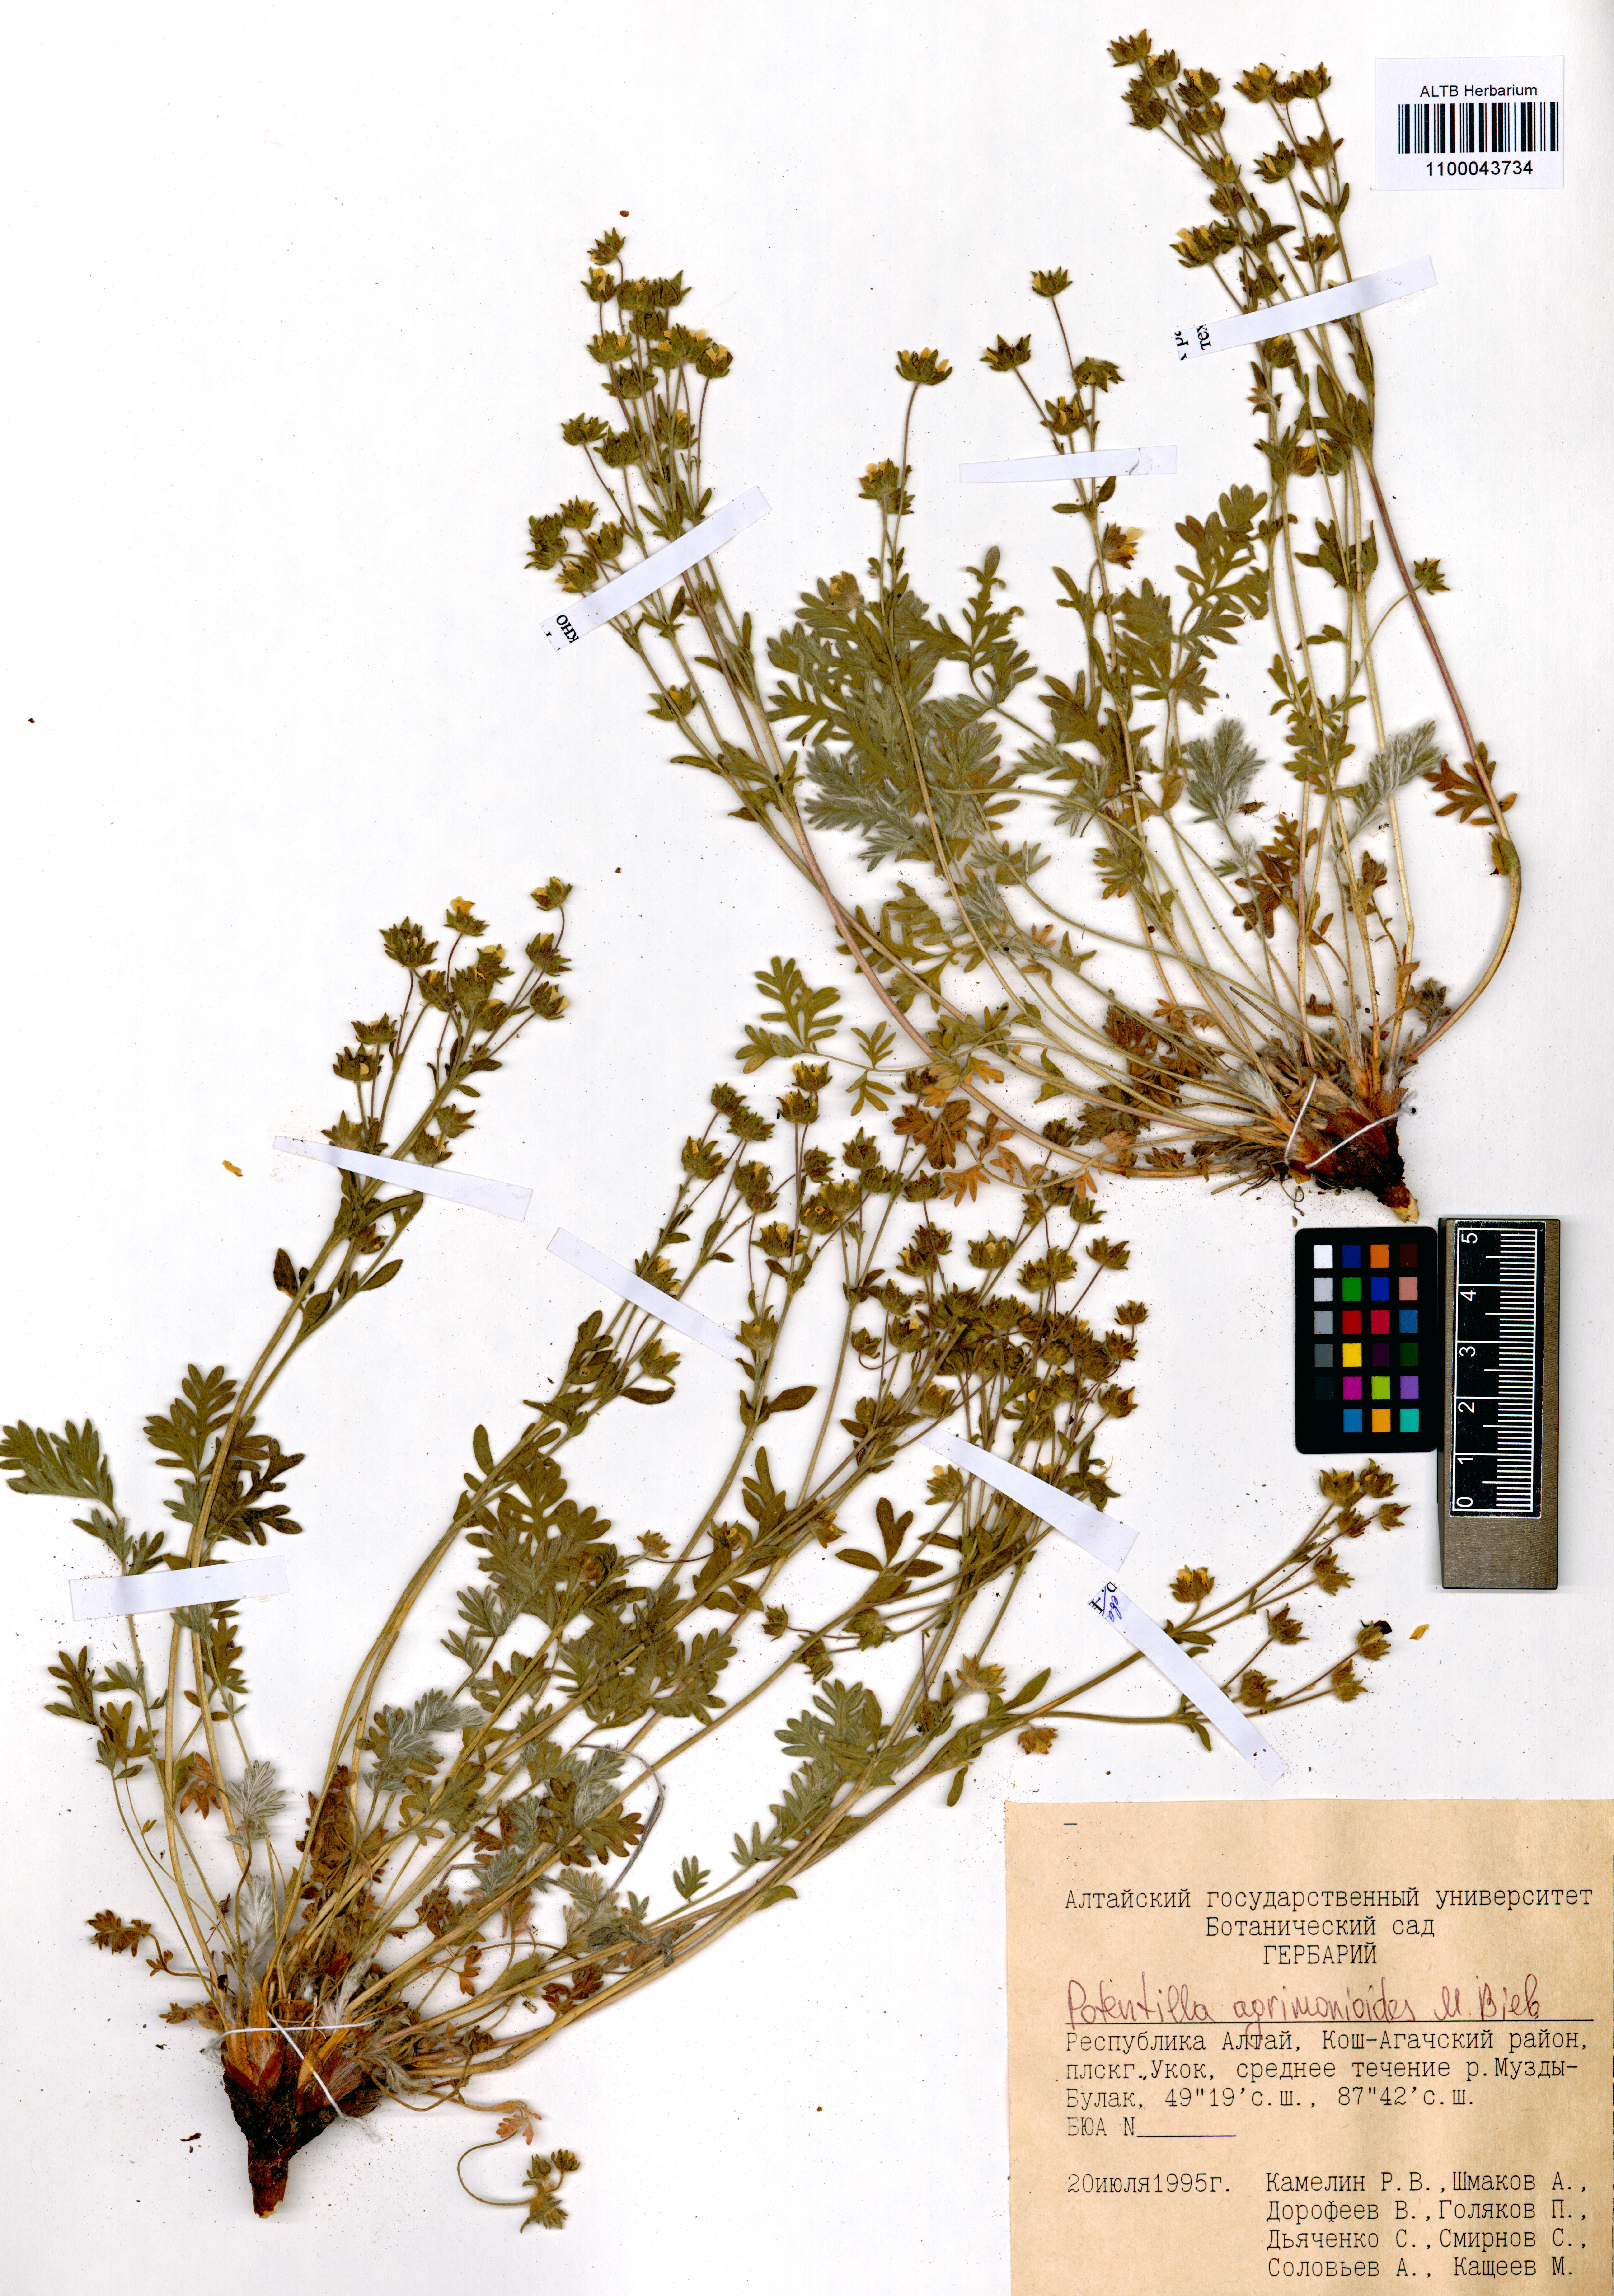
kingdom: Plantae
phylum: Tracheophyta
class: Magnoliopsida
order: Rosales
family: Rosaceae
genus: Potentilla
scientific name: Potentilla agrimonioides
